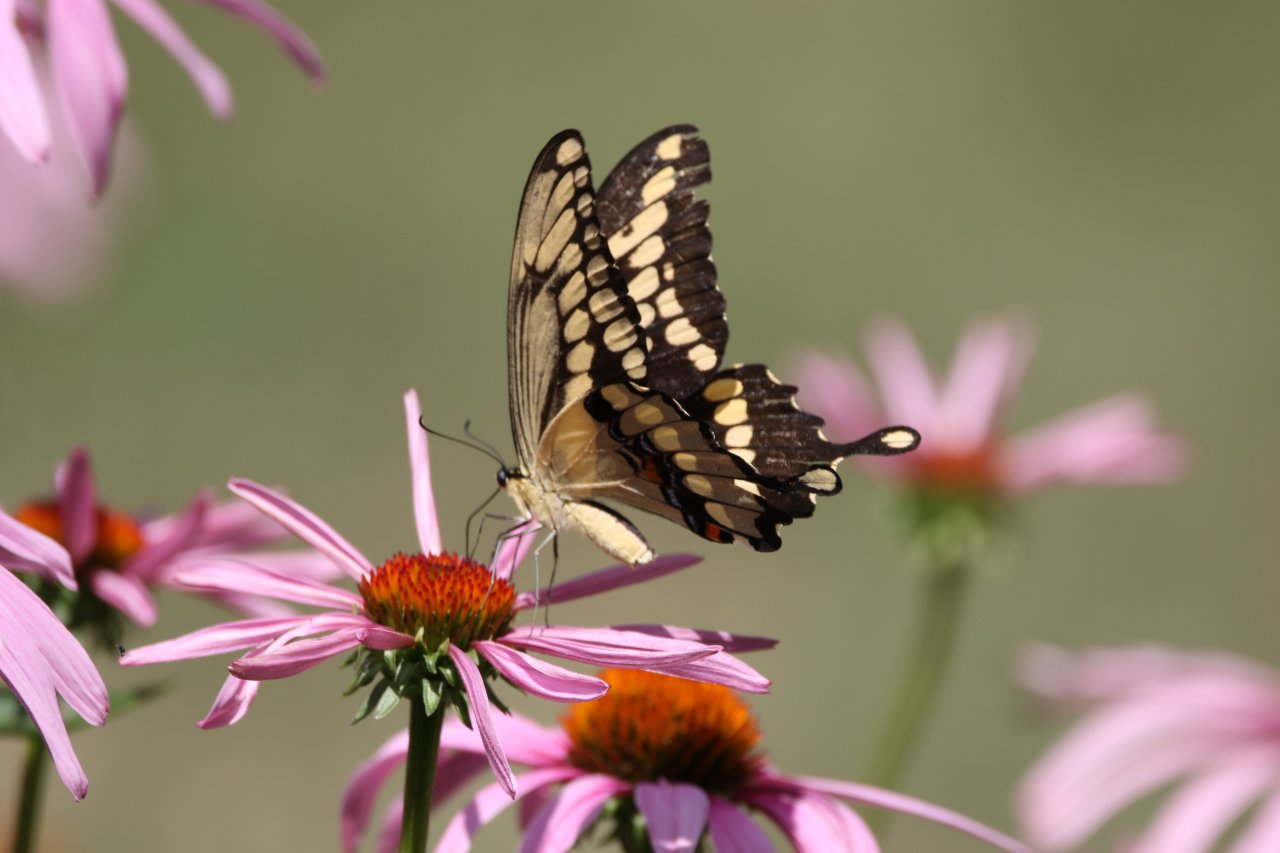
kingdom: Animalia
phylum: Arthropoda
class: Insecta
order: Lepidoptera
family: Papilionidae
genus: Papilio
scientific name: Papilio cresphontes
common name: Eastern Giant Swallowtail
